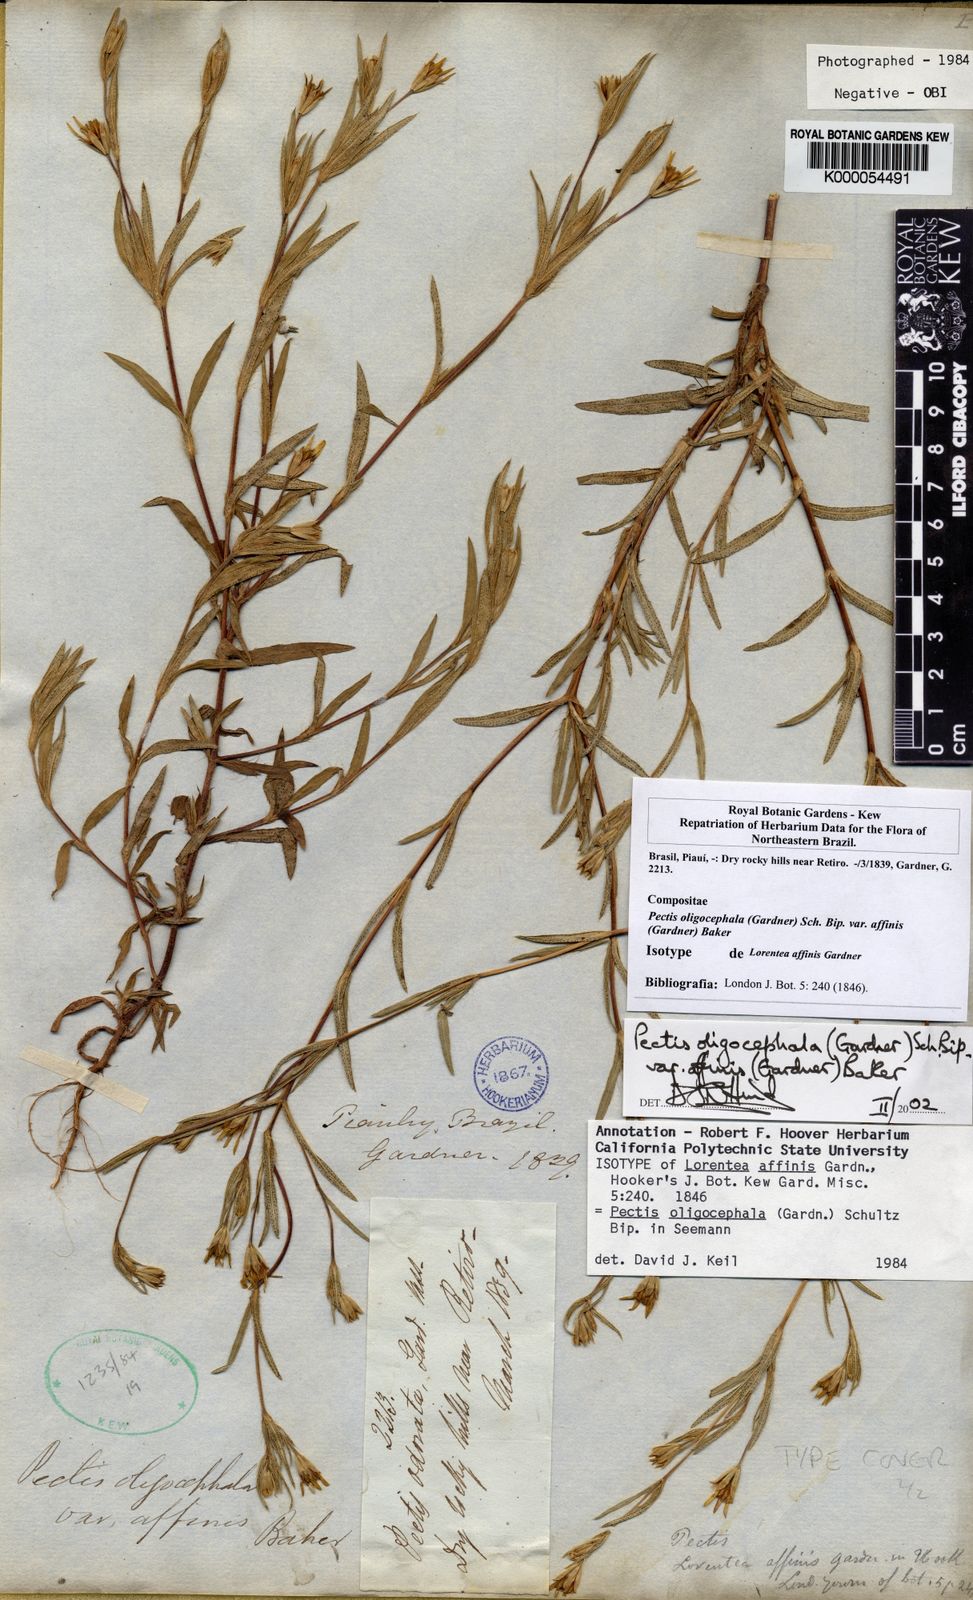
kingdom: Plantae
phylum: Tracheophyta
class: Magnoliopsida
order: Asterales
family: Asteraceae
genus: Pectis
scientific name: Pectis oligocephala
